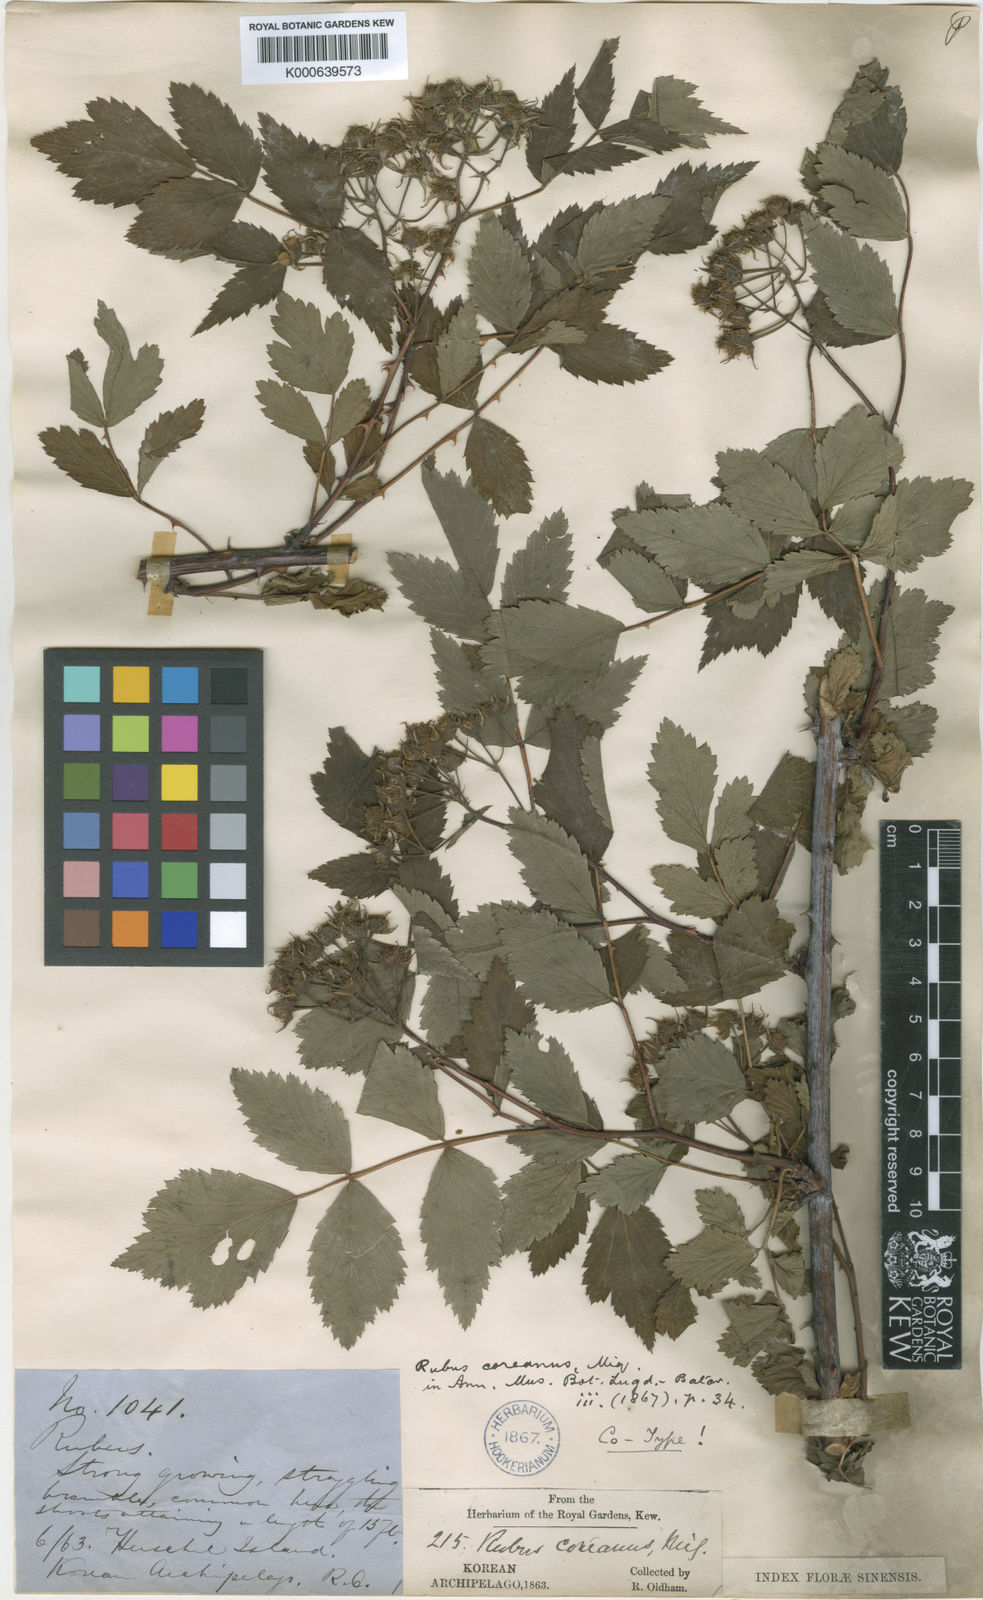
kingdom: Plantae
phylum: Tracheophyta
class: Magnoliopsida
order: Rosales
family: Rosaceae
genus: Rubus
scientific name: Rubus coreanus
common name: Korean bramble
